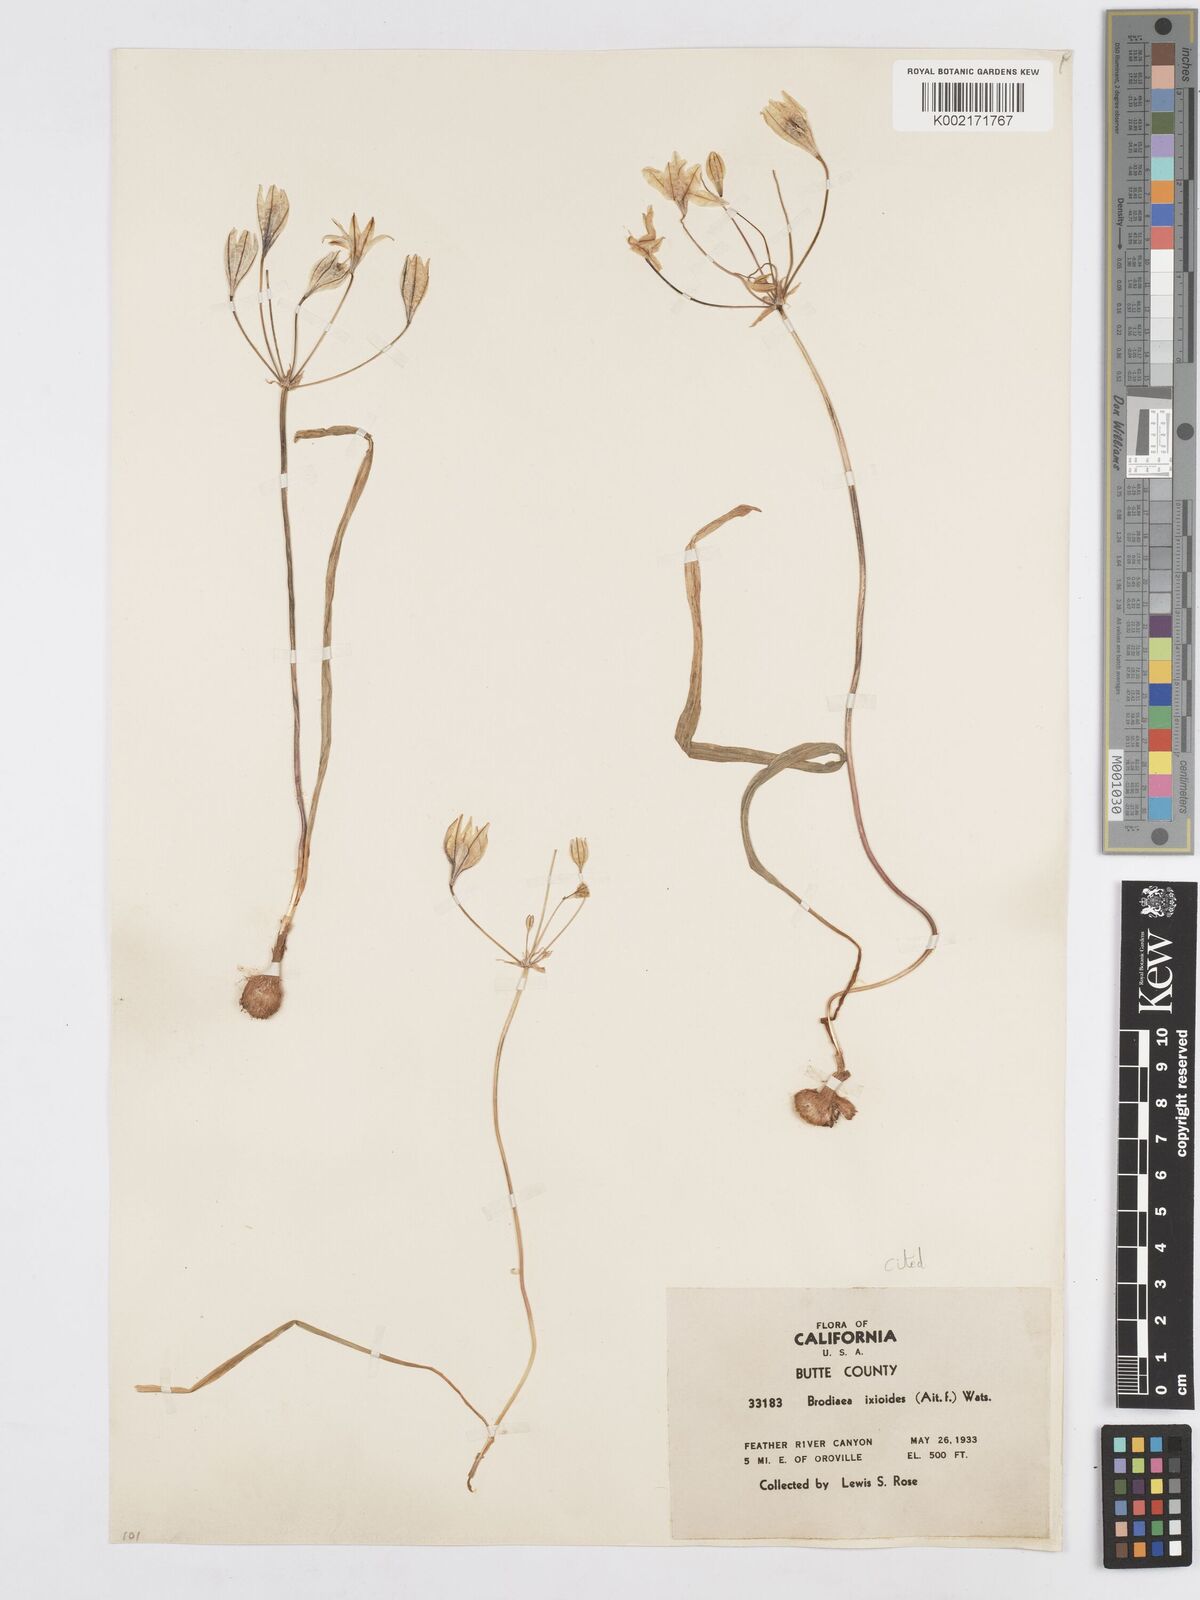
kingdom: Plantae
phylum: Tracheophyta
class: Liliopsida
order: Asparagales
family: Asparagaceae
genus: Triteleia
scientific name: Triteleia ixioides
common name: Yellow-brodiaea
